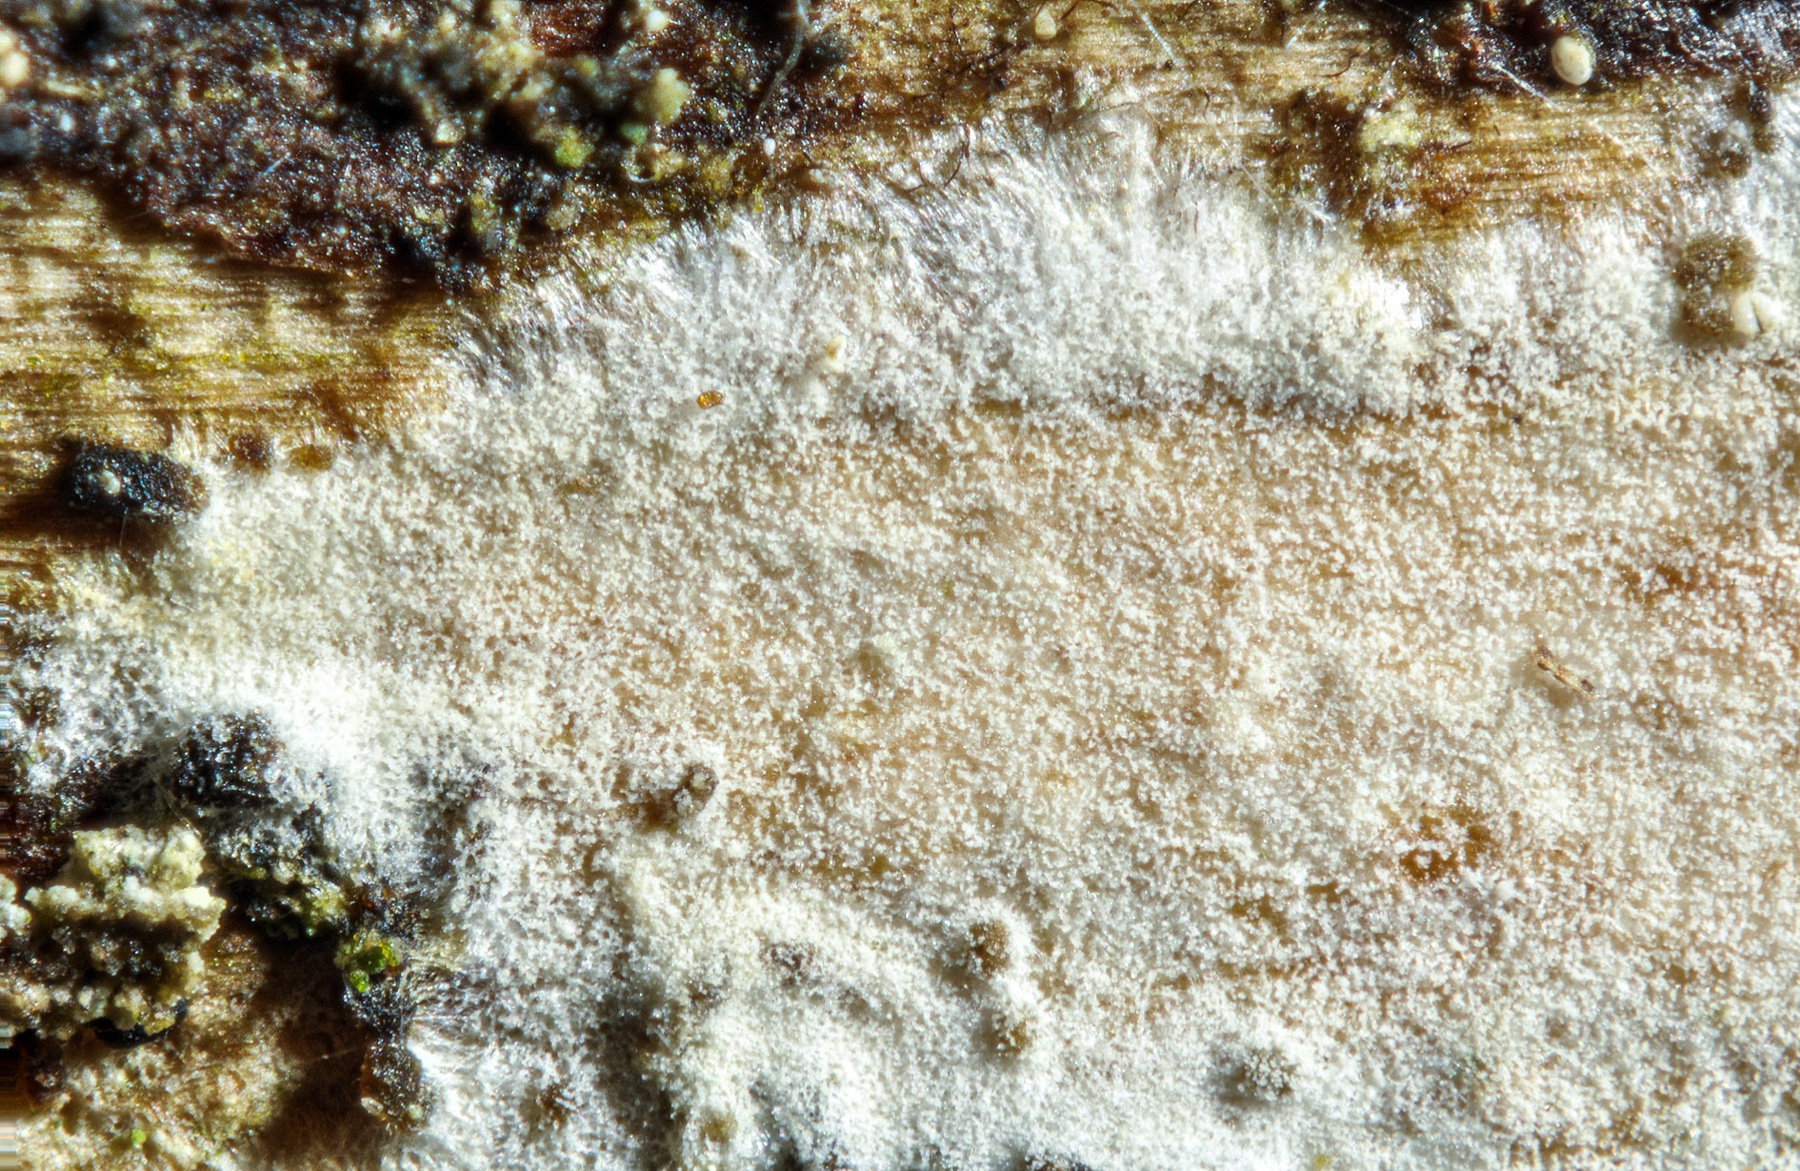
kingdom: Fungi
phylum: Basidiomycota
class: Agaricomycetes
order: Russulales
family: Stereaceae
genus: Aleurodiscus
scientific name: Aleurodiscus cerussatus
